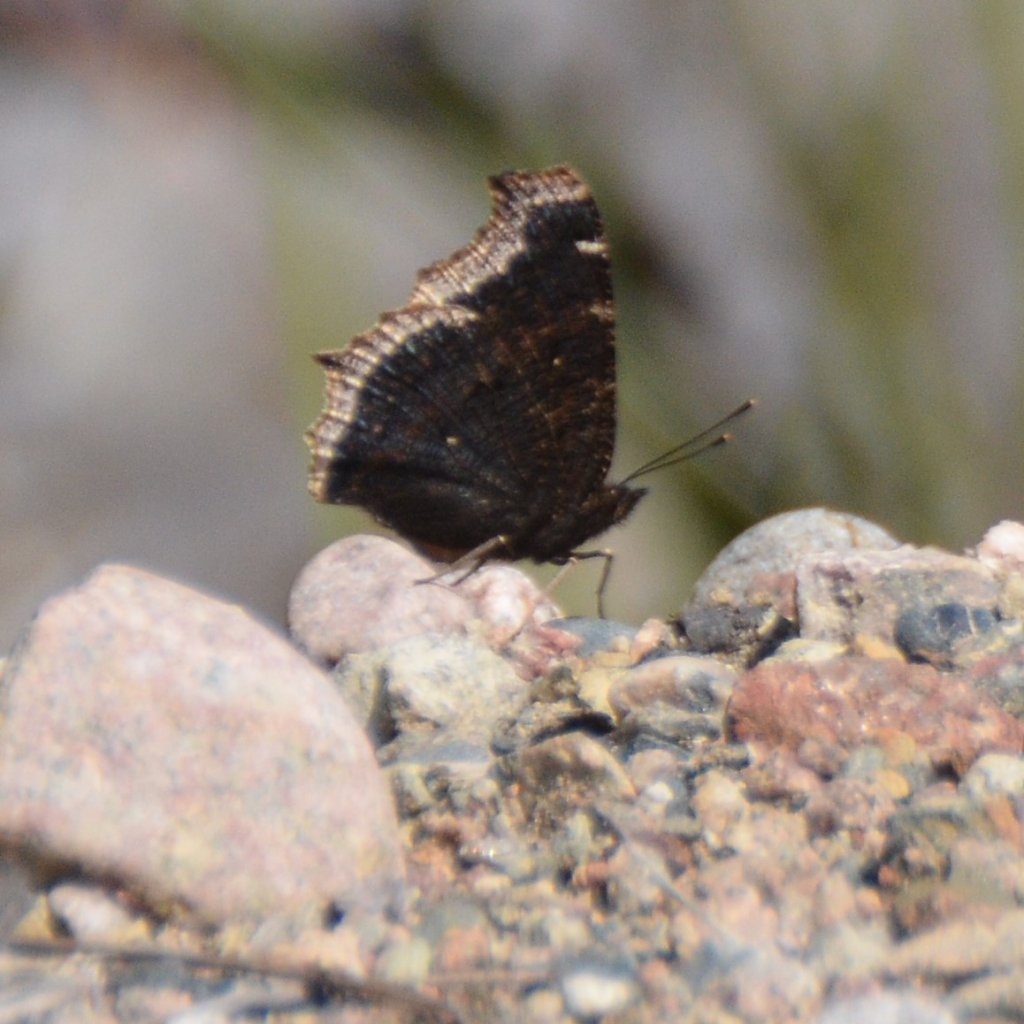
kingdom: Animalia
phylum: Arthropoda
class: Insecta
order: Lepidoptera
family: Nymphalidae
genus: Nymphalis
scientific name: Nymphalis antiopa
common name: Mourning Cloak
